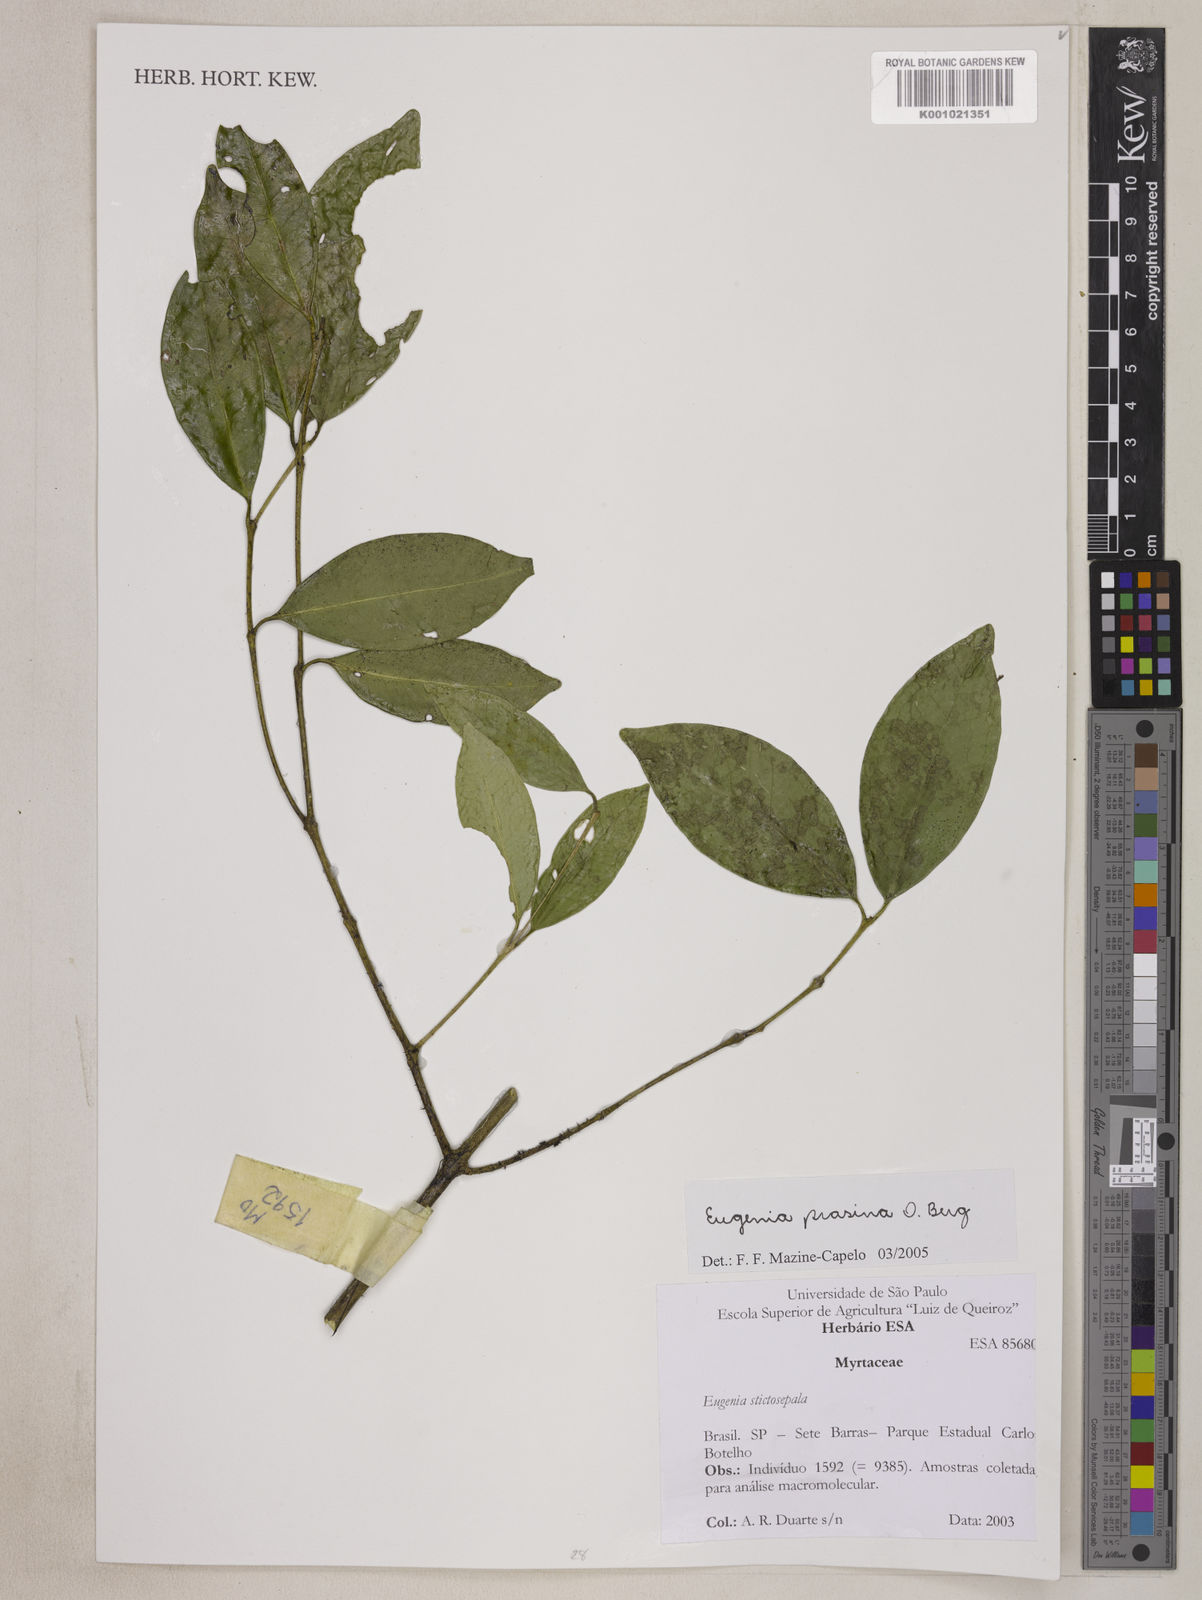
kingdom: Plantae
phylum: Tracheophyta
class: Magnoliopsida
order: Myrtales
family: Myrtaceae
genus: Eugenia
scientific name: Eugenia prasina
